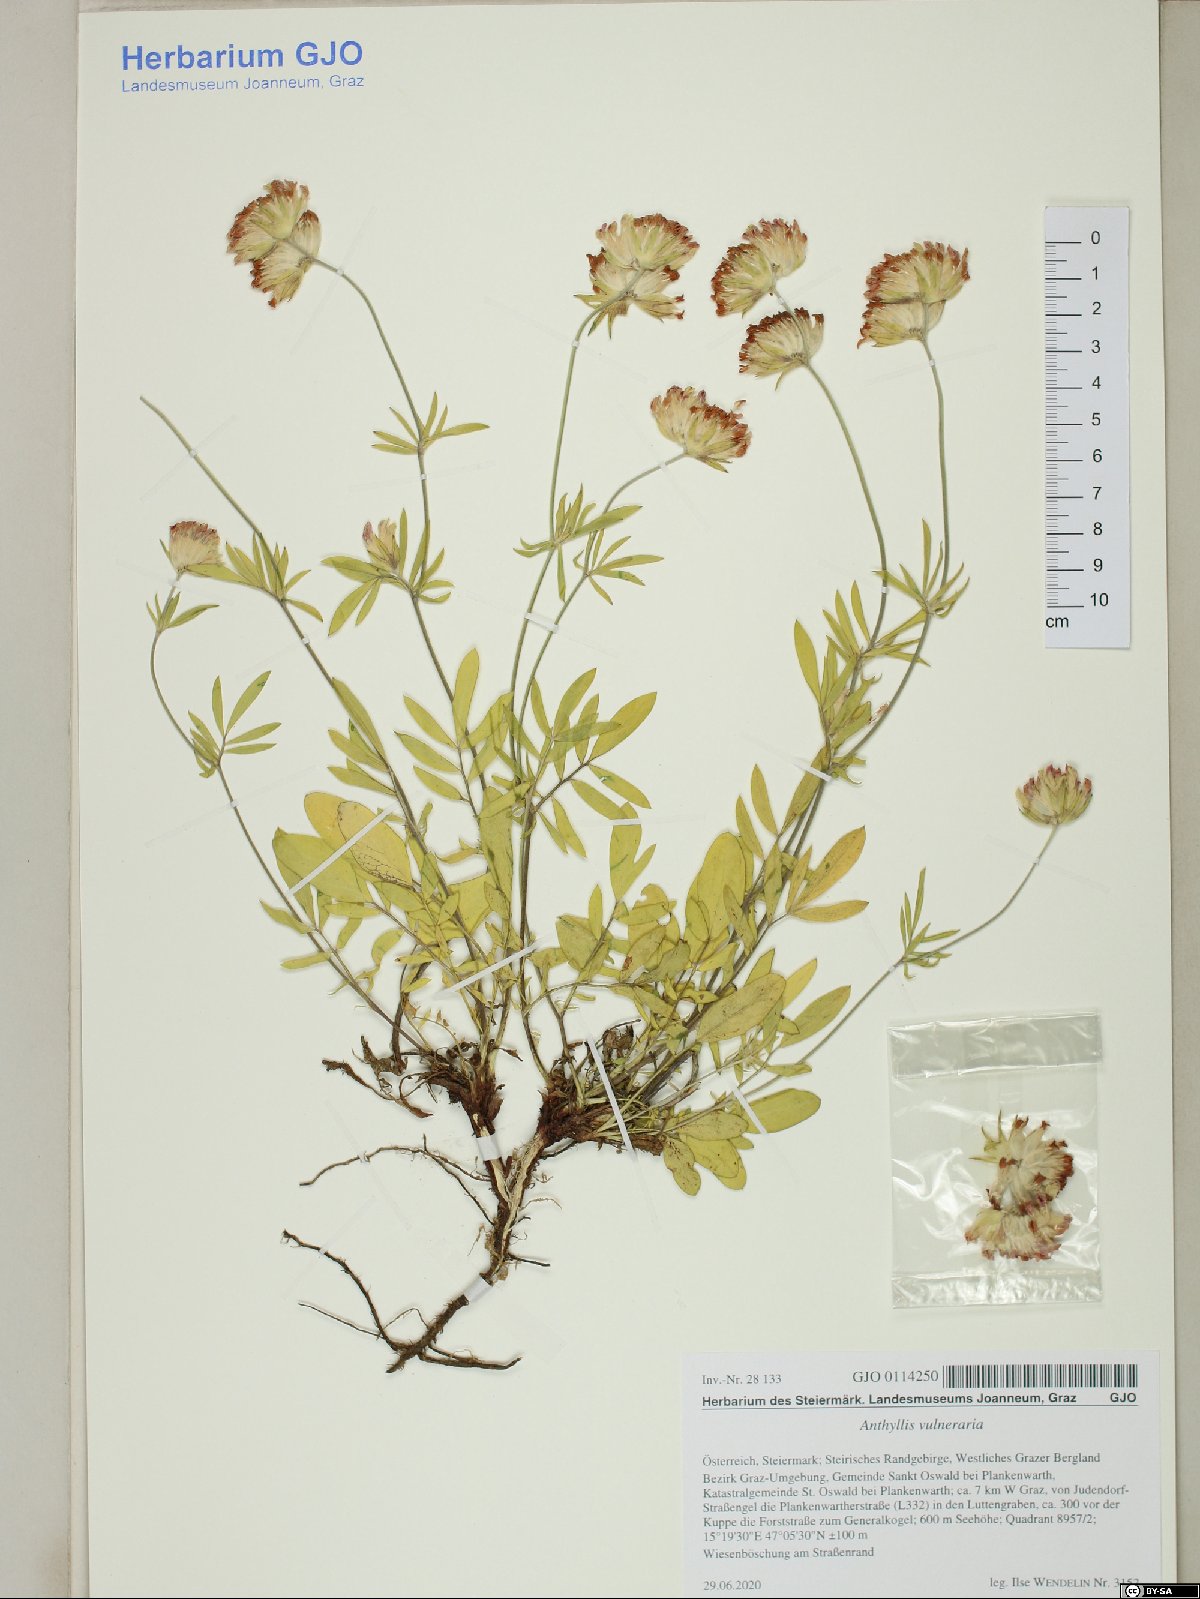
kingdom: Plantae
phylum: Tracheophyta
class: Magnoliopsida
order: Fabales
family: Fabaceae
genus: Anthyllis
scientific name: Anthyllis vulneraria
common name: Kidney vetch
